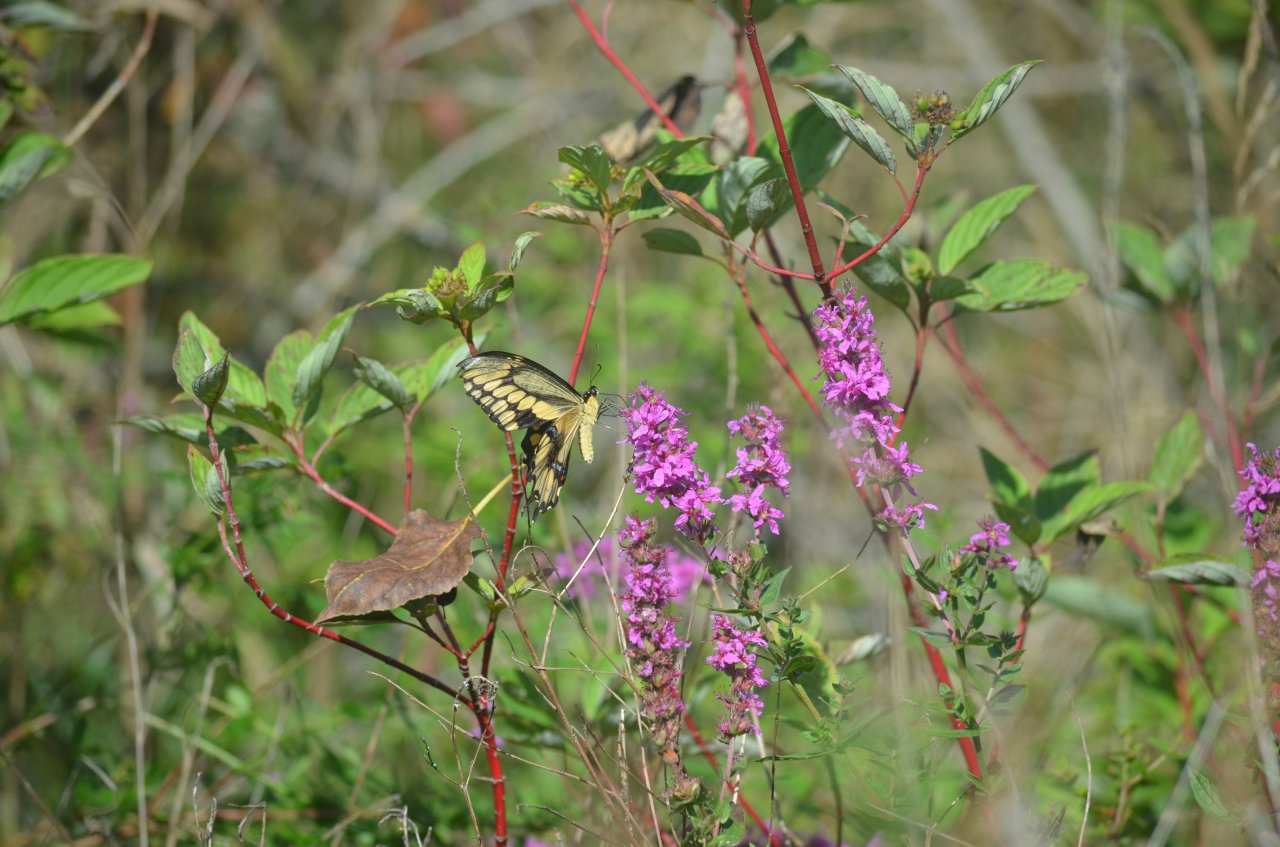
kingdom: Animalia
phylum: Arthropoda
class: Insecta
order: Lepidoptera
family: Papilionidae
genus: Papilio
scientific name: Papilio cresphontes
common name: Eastern Giant Swallowtail
